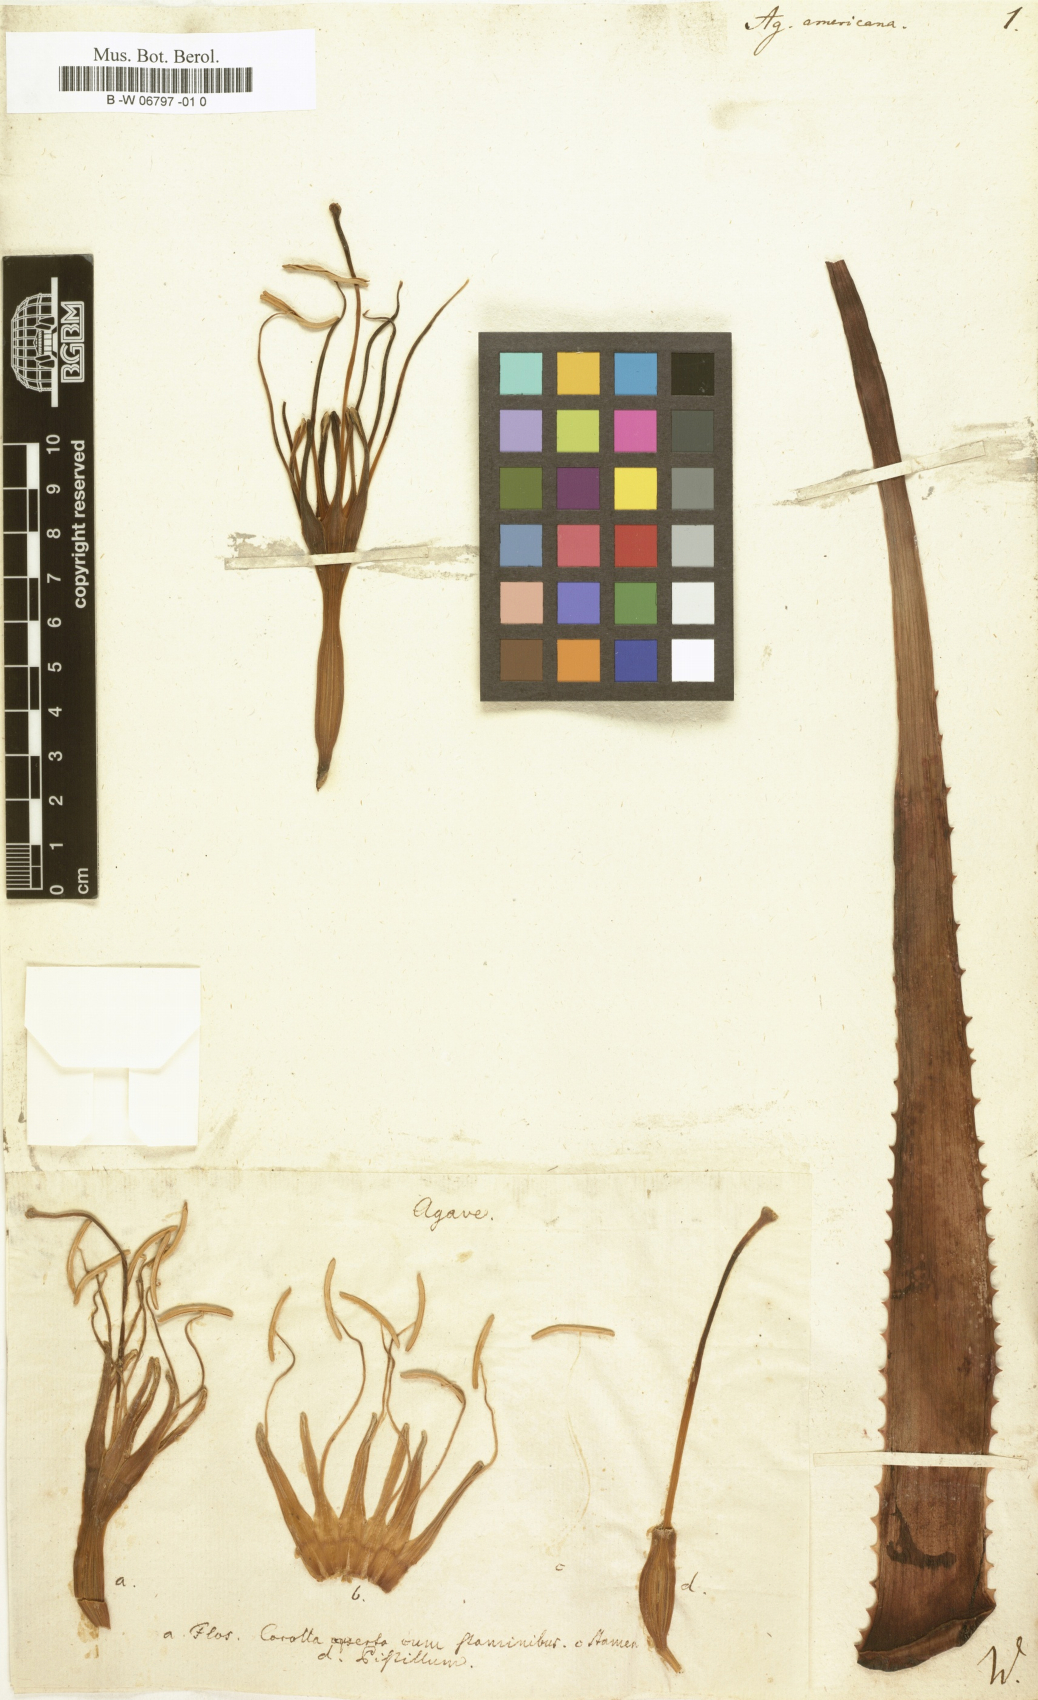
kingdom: Plantae
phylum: Tracheophyta
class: Liliopsida
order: Asparagales
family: Asparagaceae
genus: Agave
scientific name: Agave americana
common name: Centuryplant
